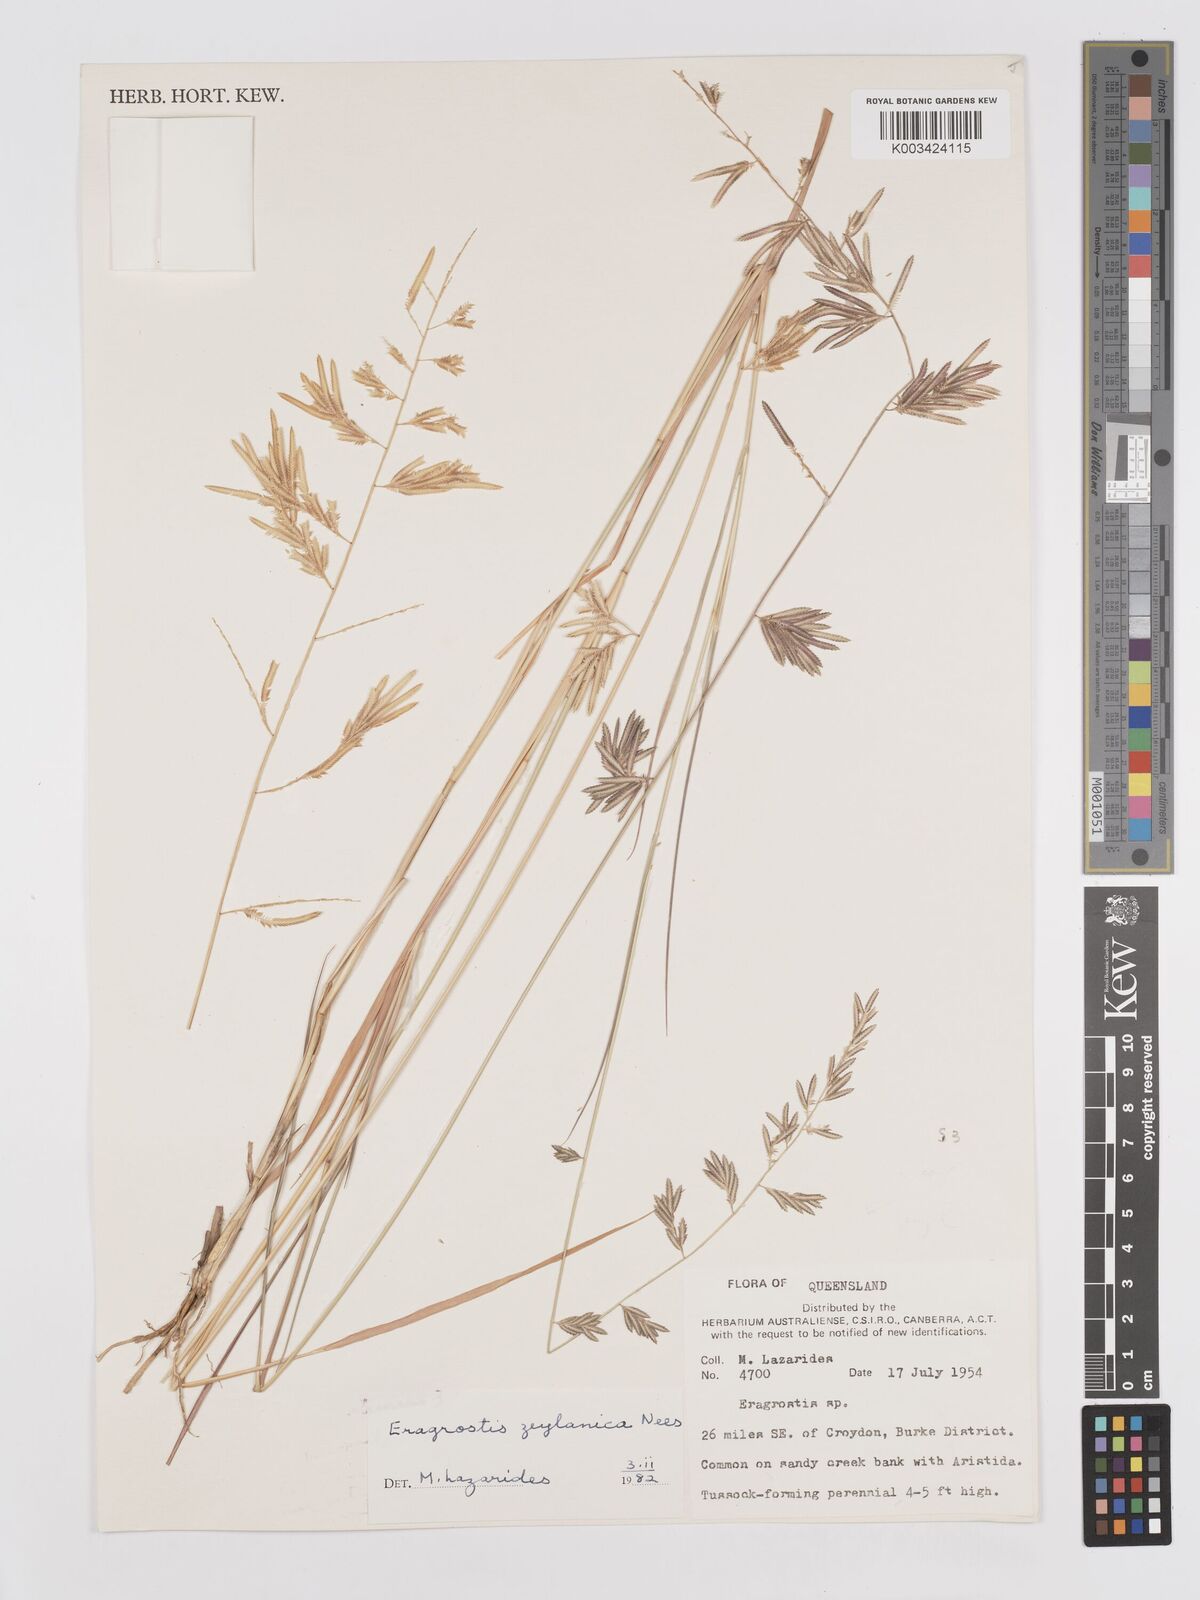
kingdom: Plantae
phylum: Tracheophyta
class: Liliopsida
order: Poales
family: Poaceae
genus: Eragrostis
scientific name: Eragrostis brownii
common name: Lovegrass
